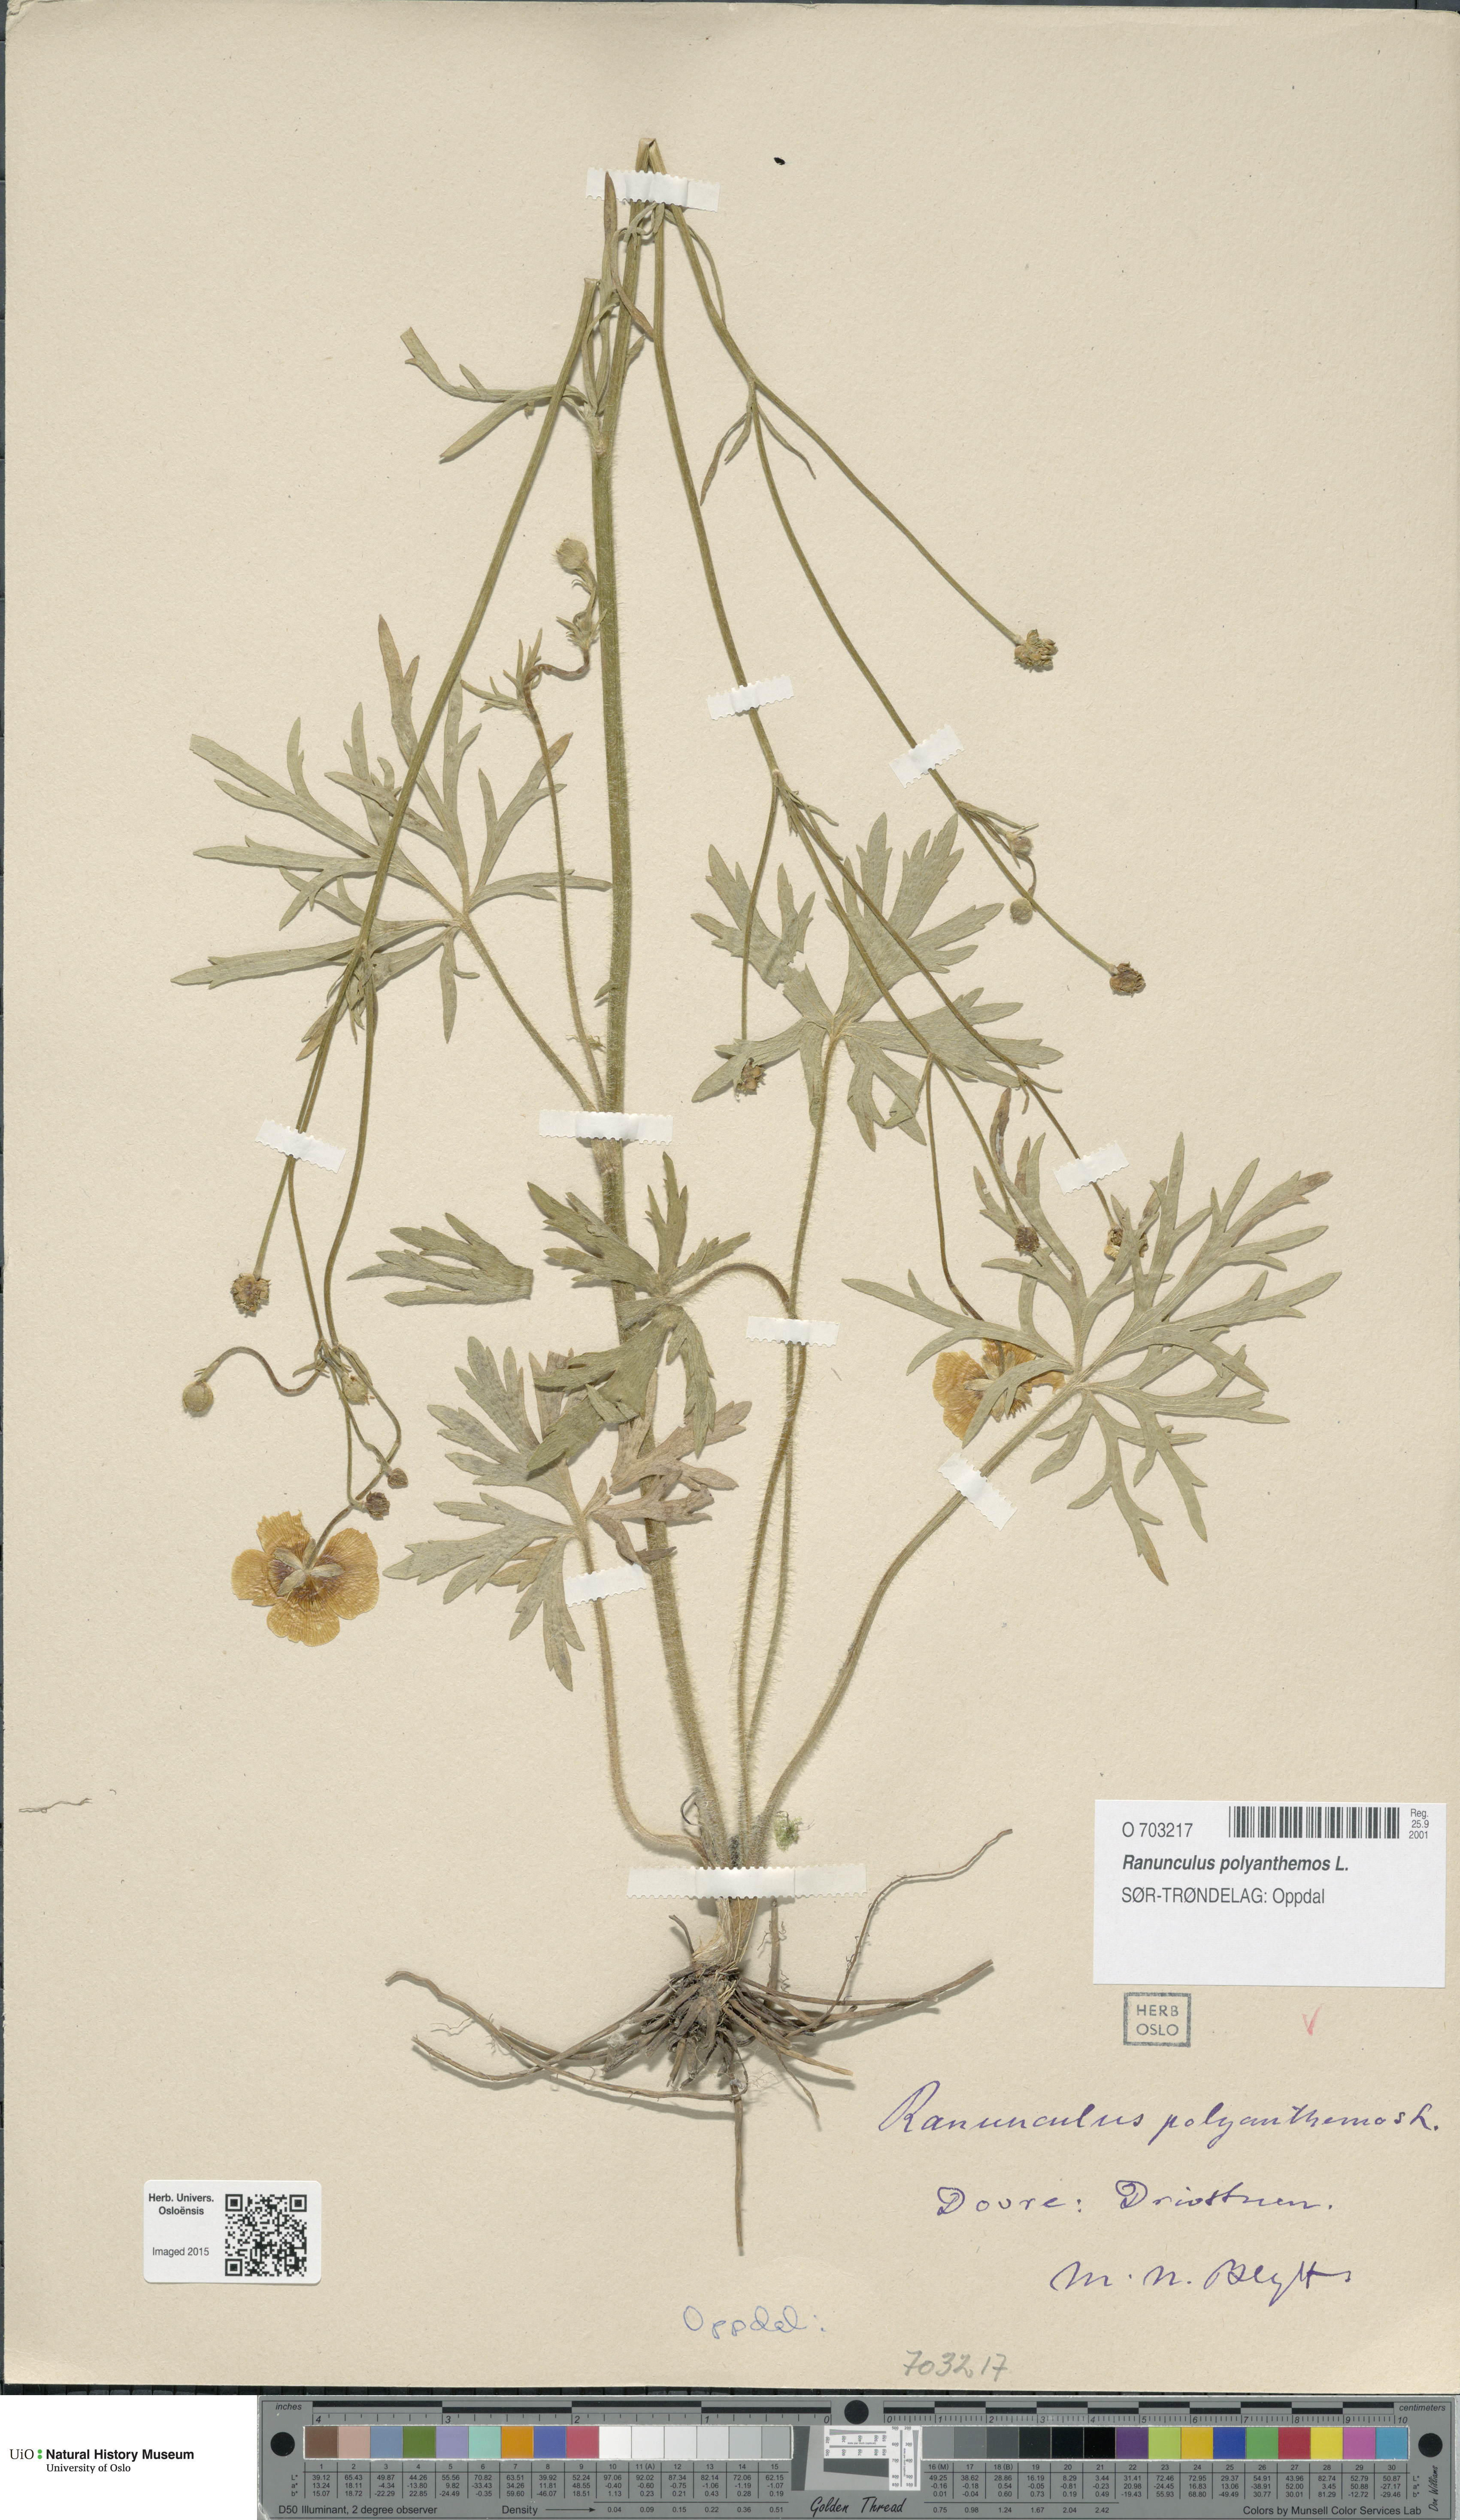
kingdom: Plantae
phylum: Tracheophyta
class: Magnoliopsida
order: Ranunculales
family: Ranunculaceae
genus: Ranunculus
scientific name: Ranunculus polyanthemos
